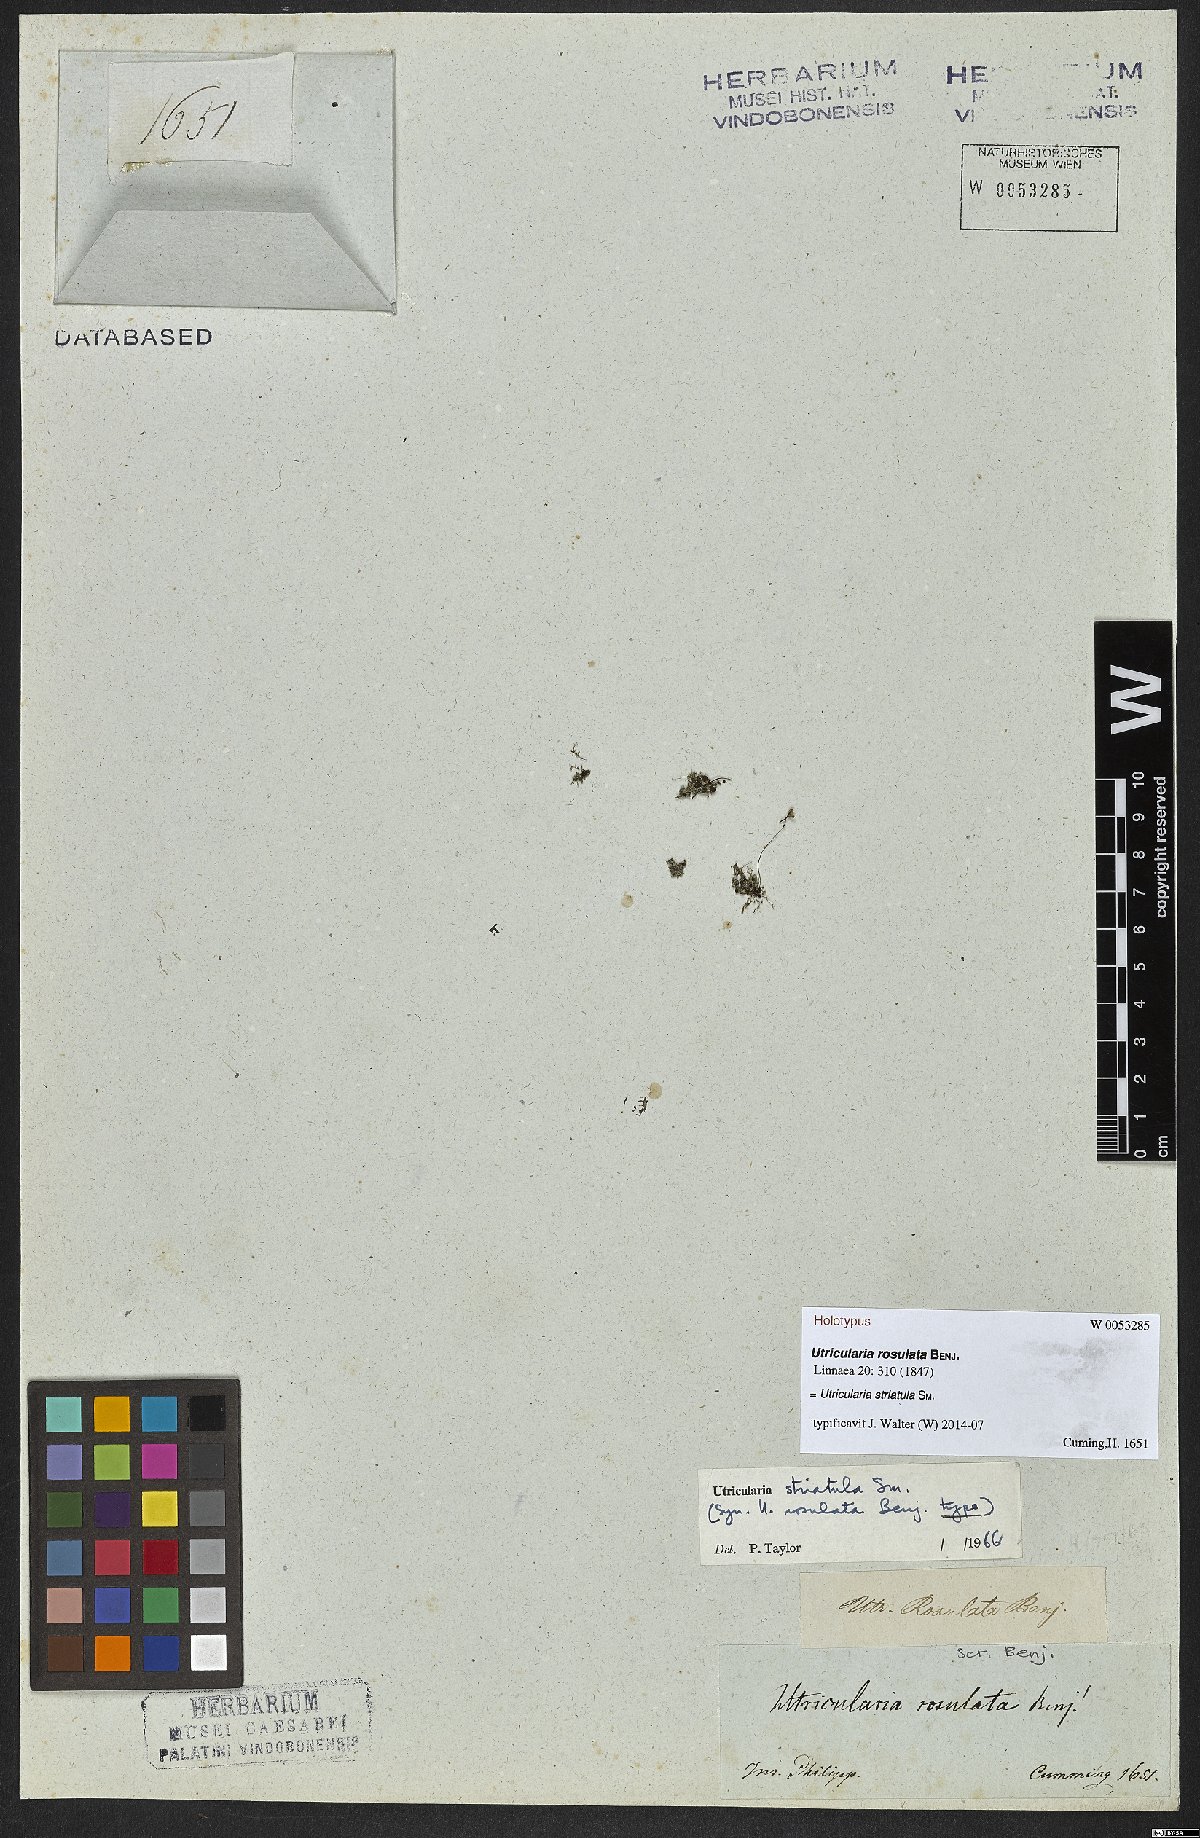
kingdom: Plantae
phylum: Tracheophyta
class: Magnoliopsida
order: Lamiales
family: Lentibulariaceae
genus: Utricularia
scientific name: Utricularia striatula
